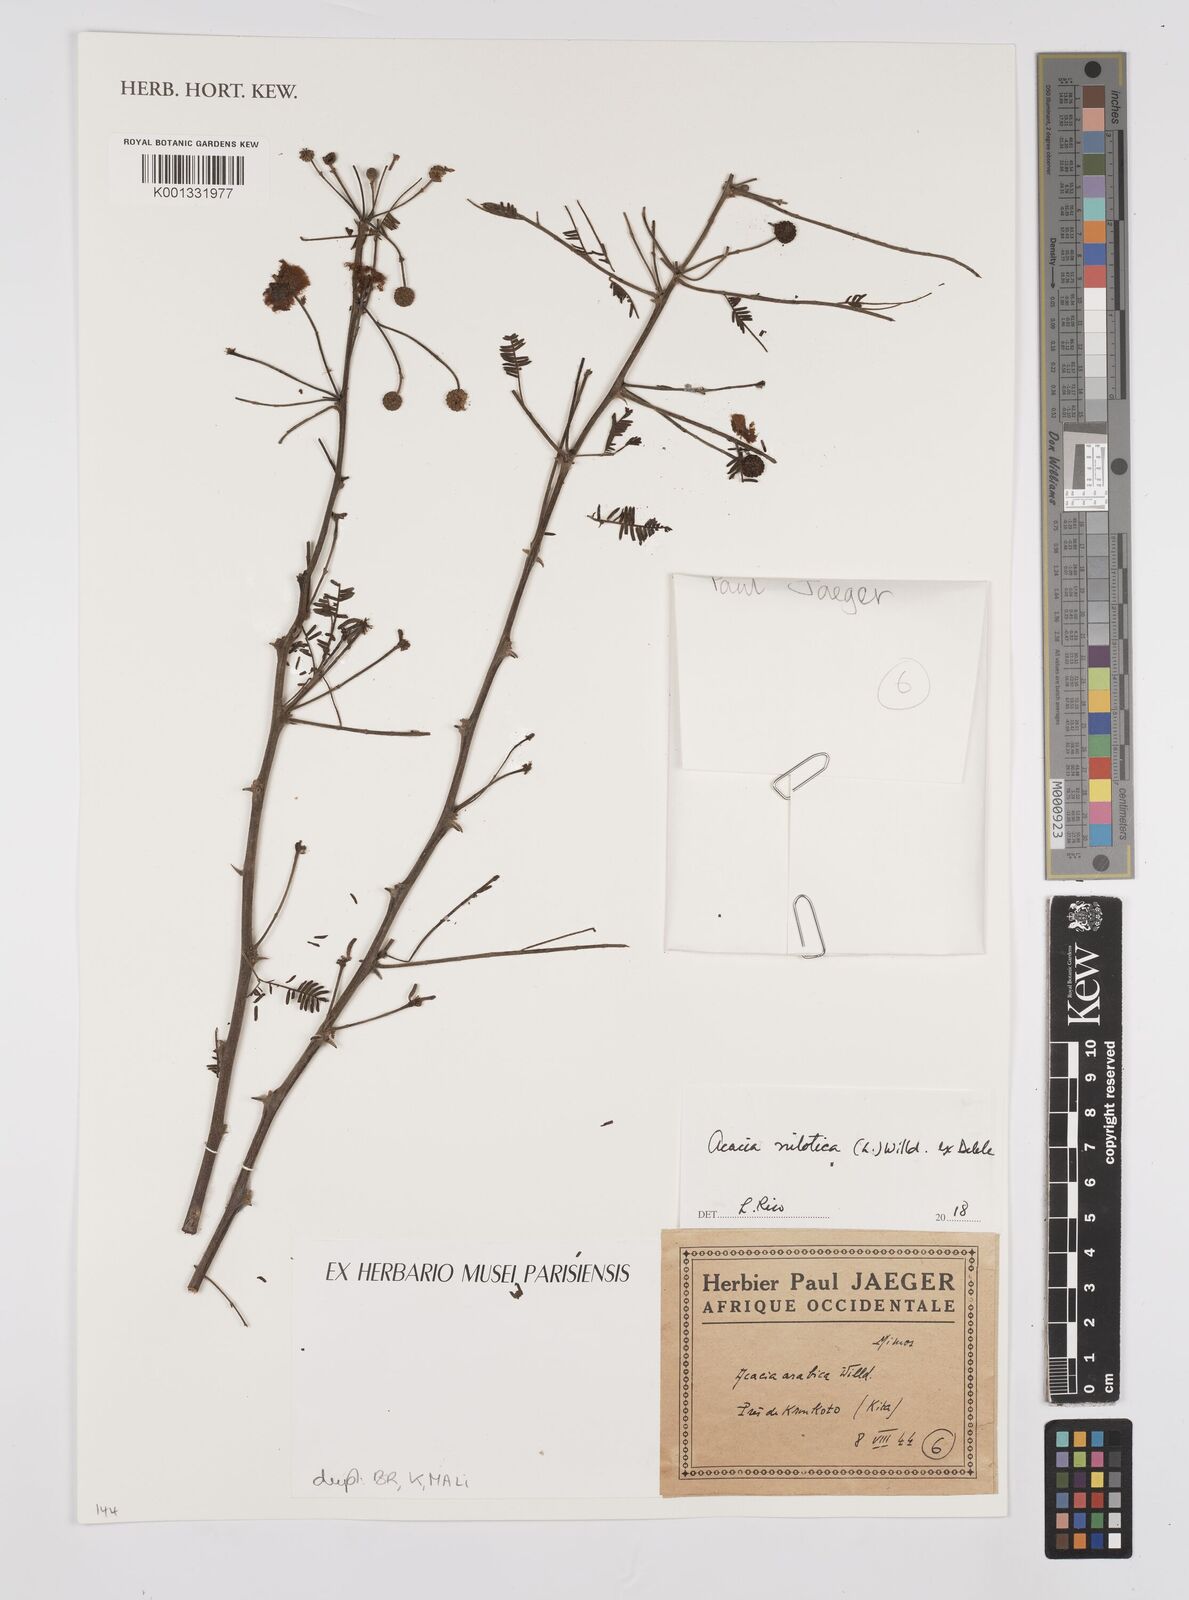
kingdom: Plantae
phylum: Tracheophyta
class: Magnoliopsida
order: Fabales
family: Fabaceae
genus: Vachellia
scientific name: Vachellia nilotica
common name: Arabic gumtree
